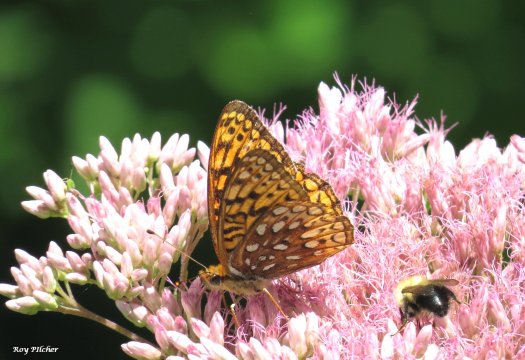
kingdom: Animalia
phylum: Arthropoda
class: Insecta
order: Lepidoptera
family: Nymphalidae
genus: Speyeria
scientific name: Speyeria atlantis
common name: Atlantis Fritillary
